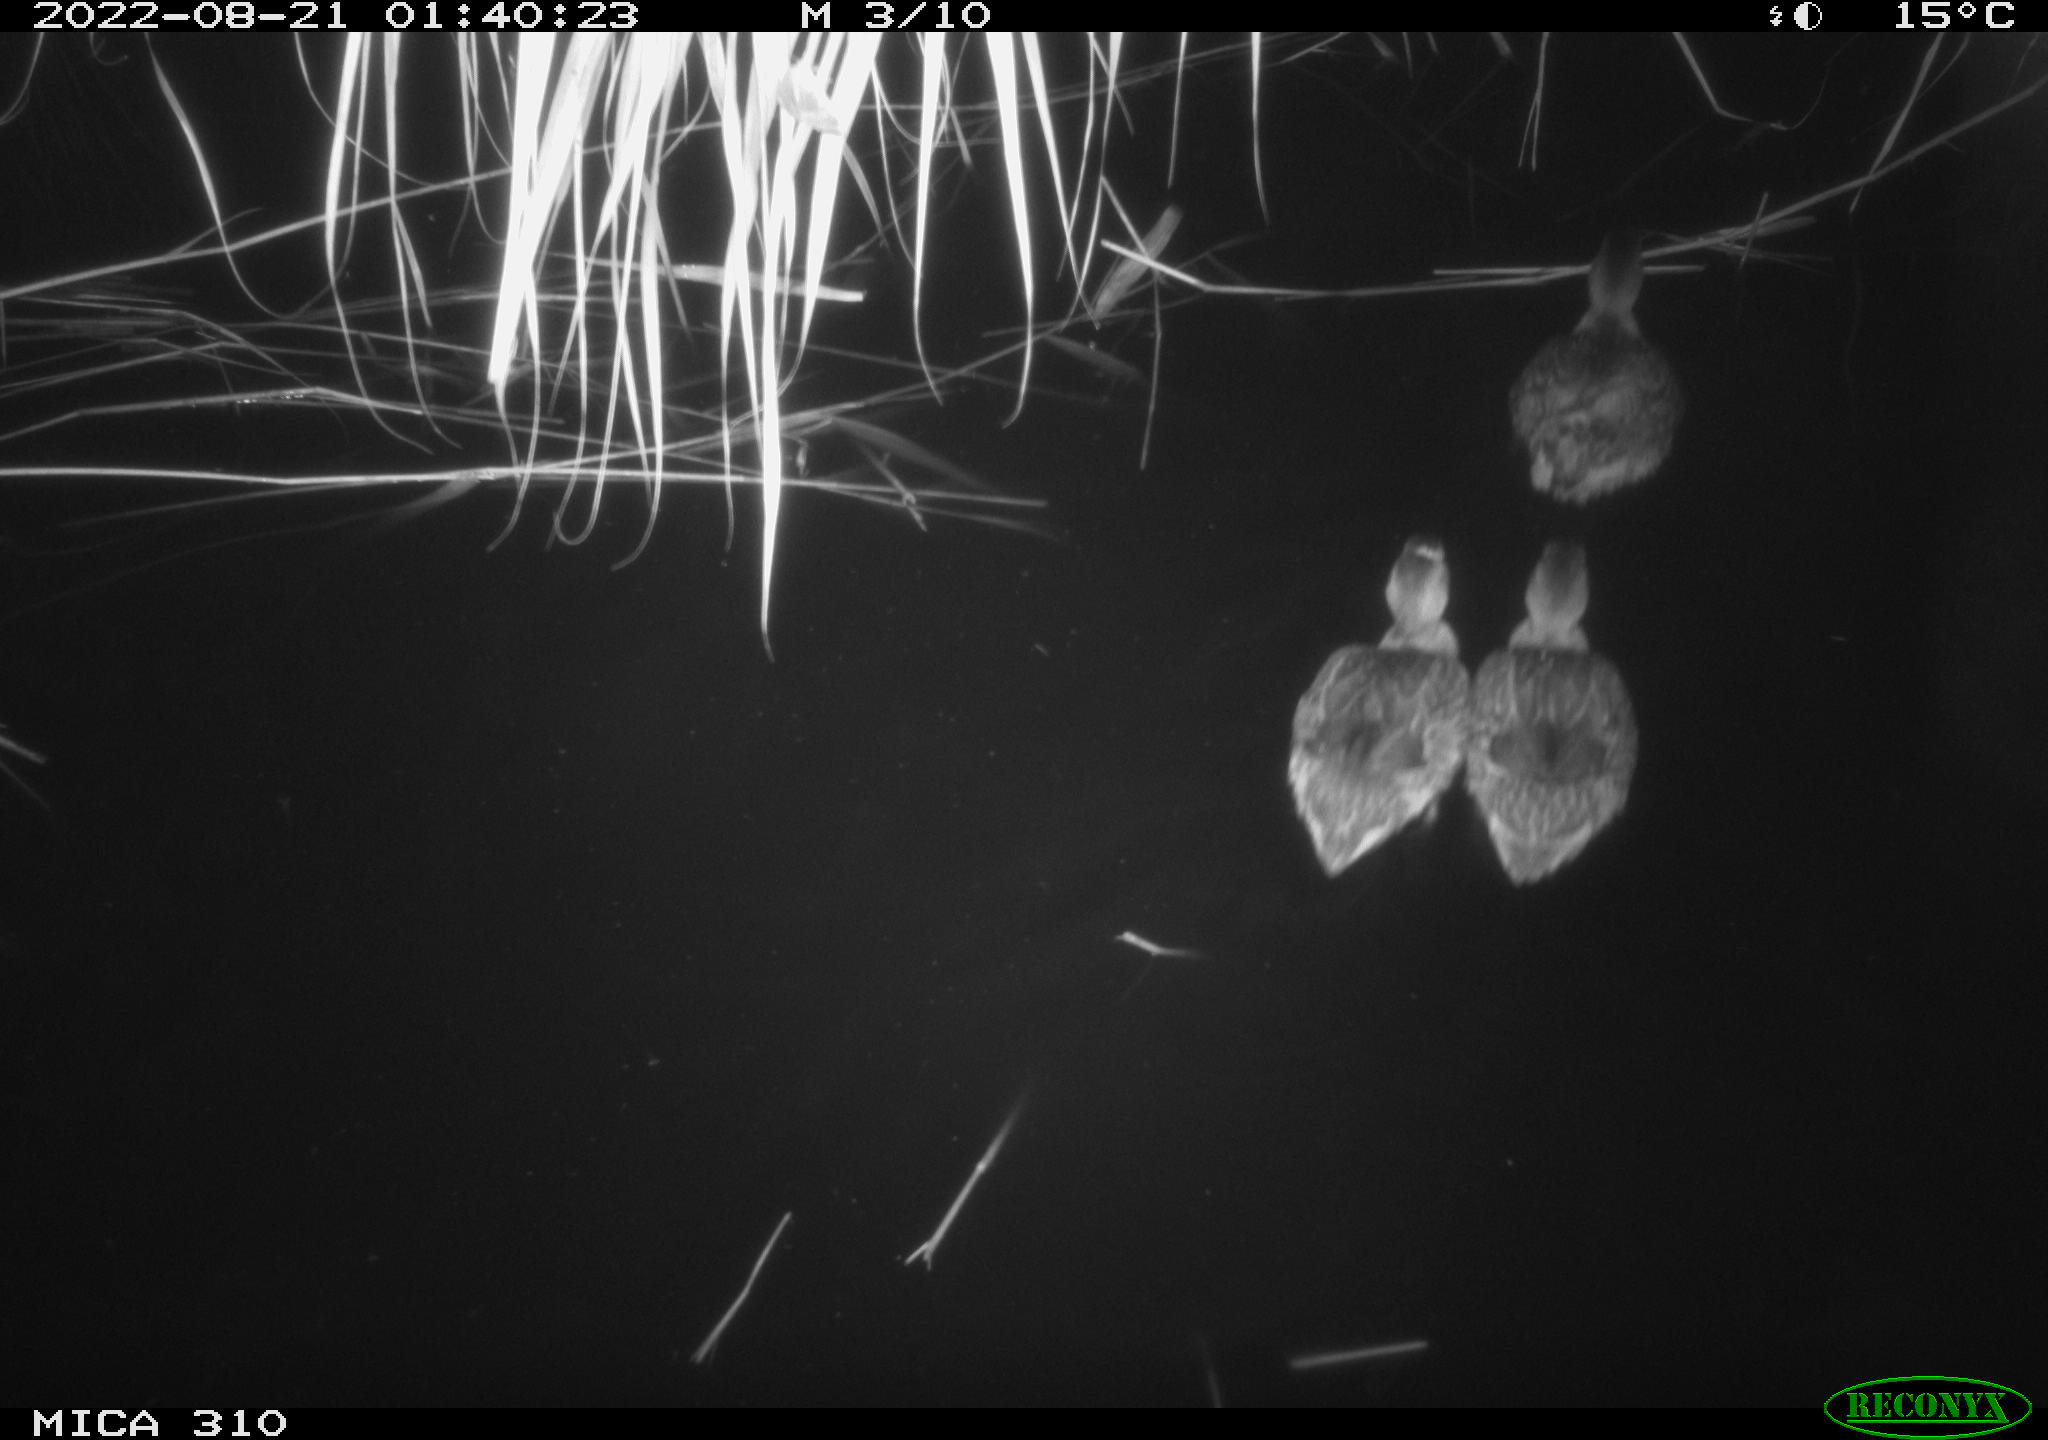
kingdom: Animalia
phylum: Chordata
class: Aves
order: Gruiformes
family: Rallidae
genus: Gallinula
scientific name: Gallinula chloropus
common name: Common moorhen
